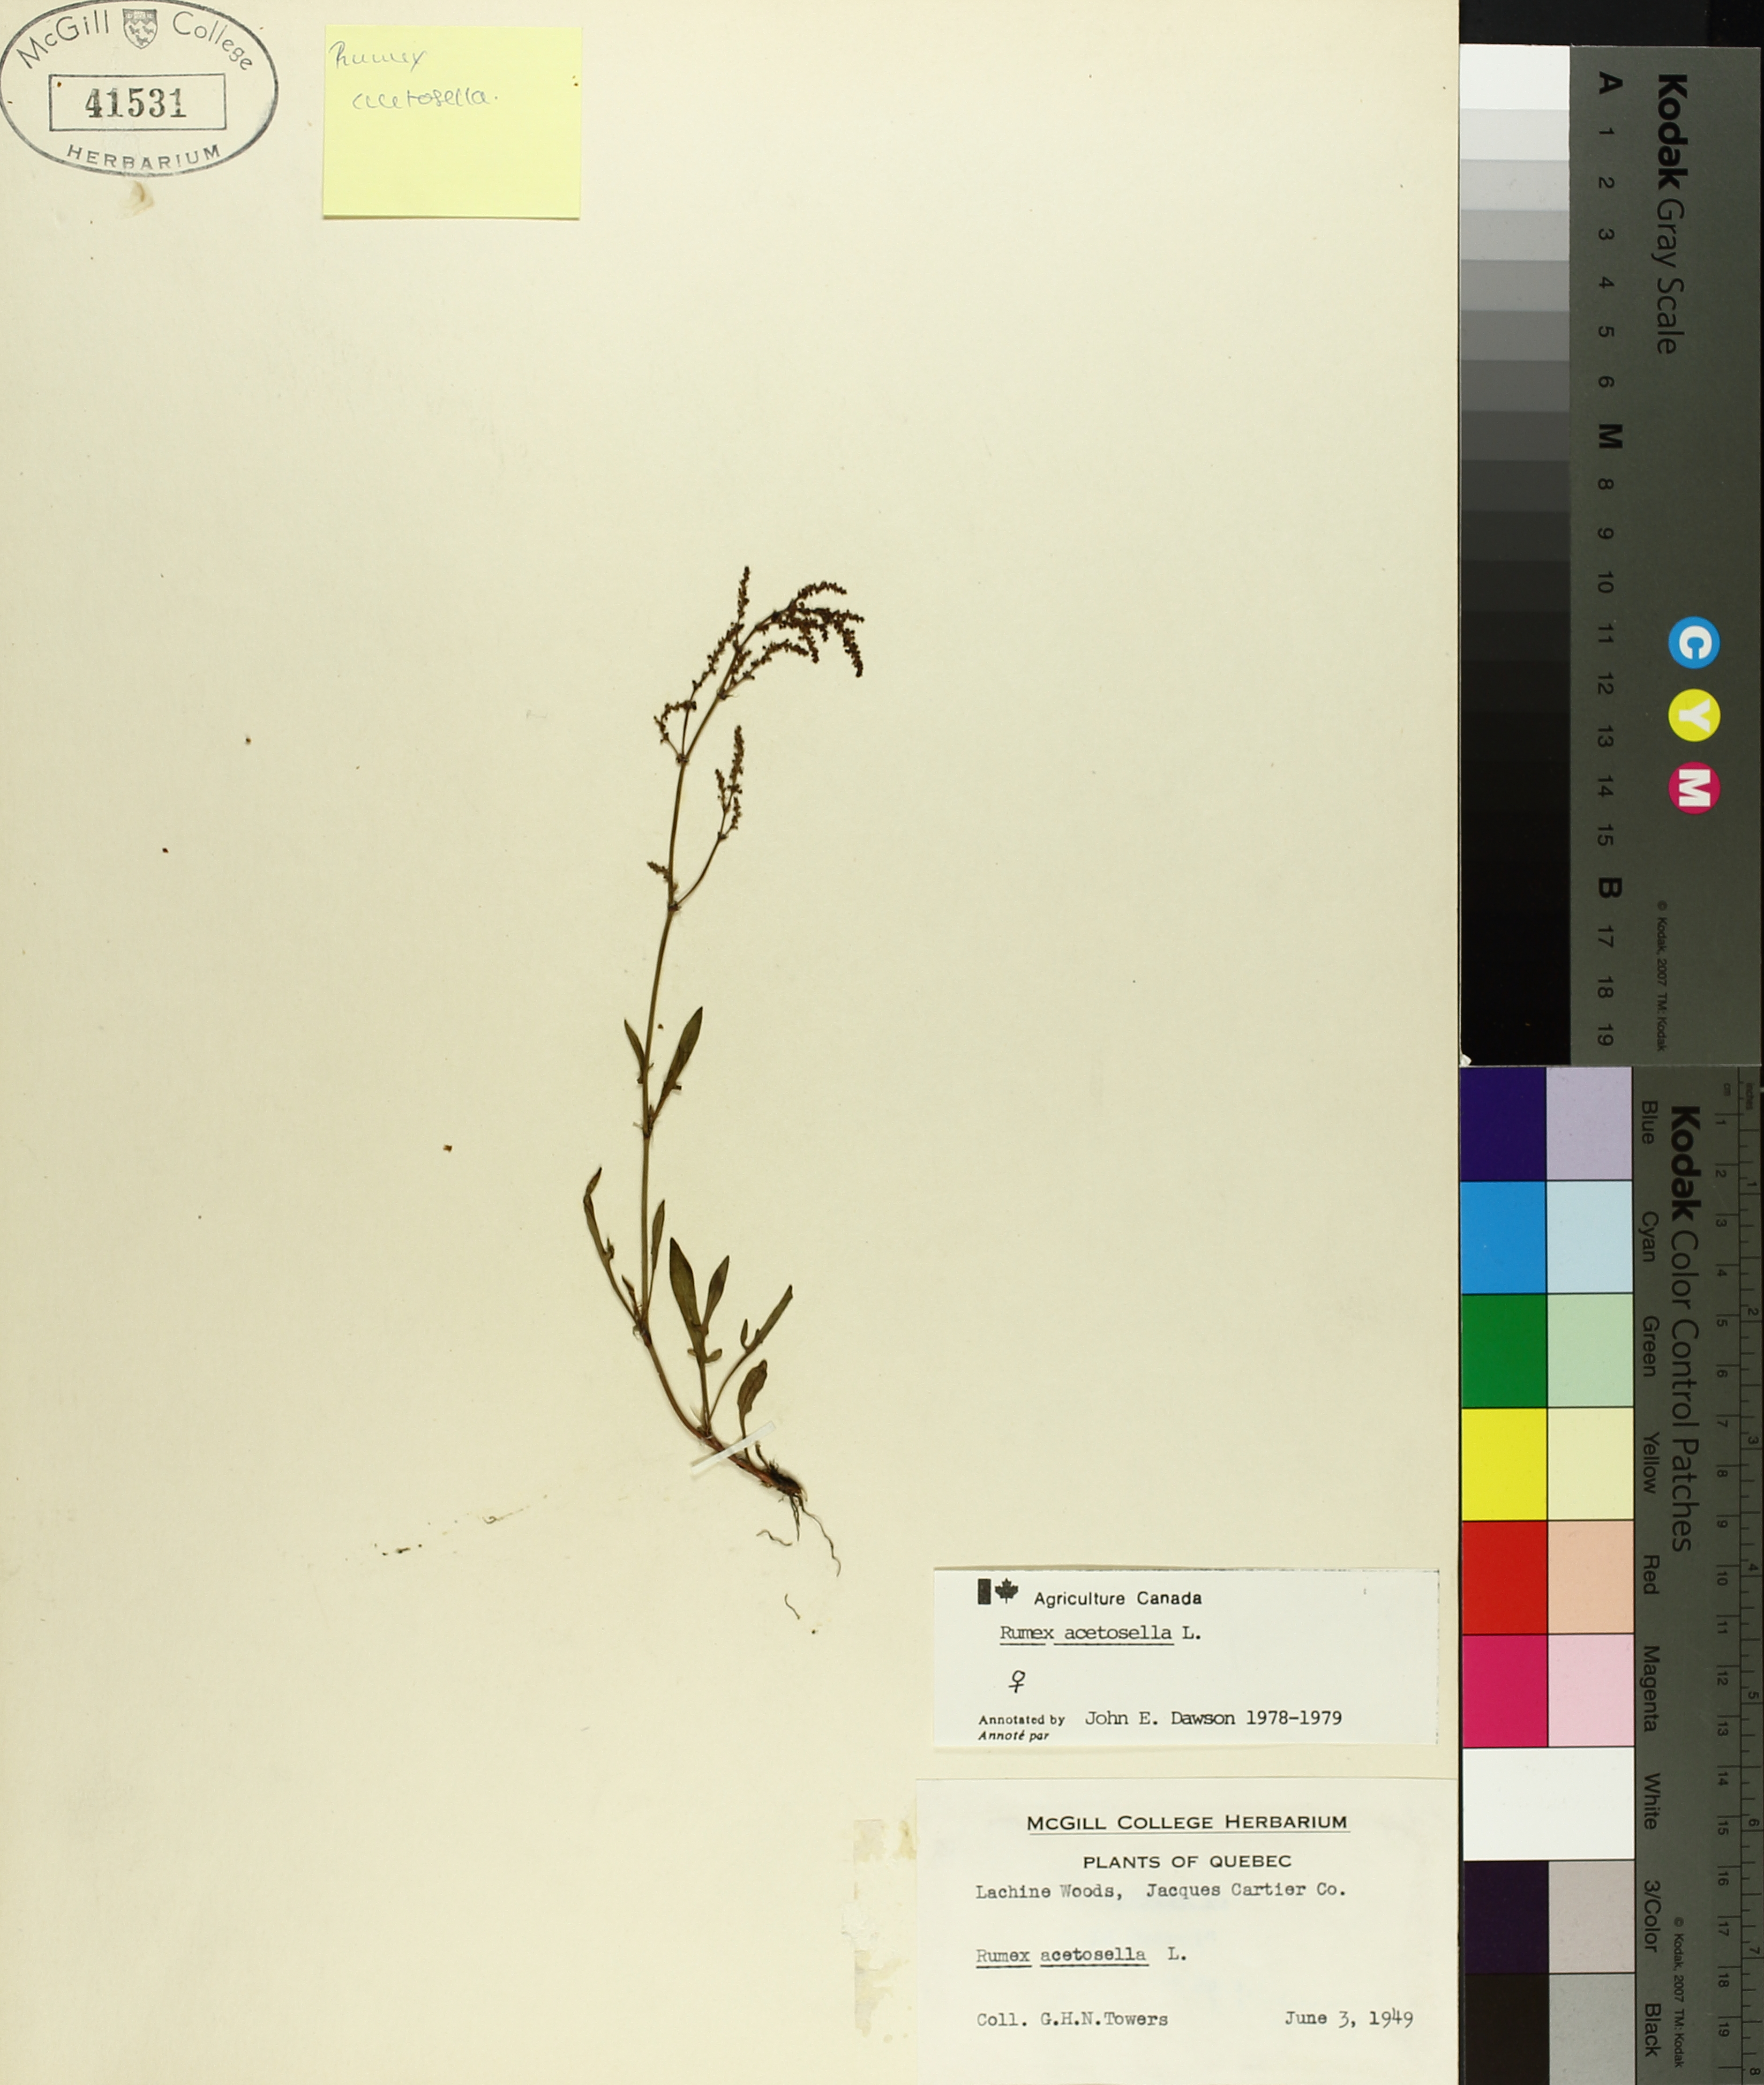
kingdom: Plantae
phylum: Tracheophyta
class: Magnoliopsida
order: Caryophyllales
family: Polygonaceae
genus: Rumex
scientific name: Rumex acetosella
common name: Common sheep sorrel
